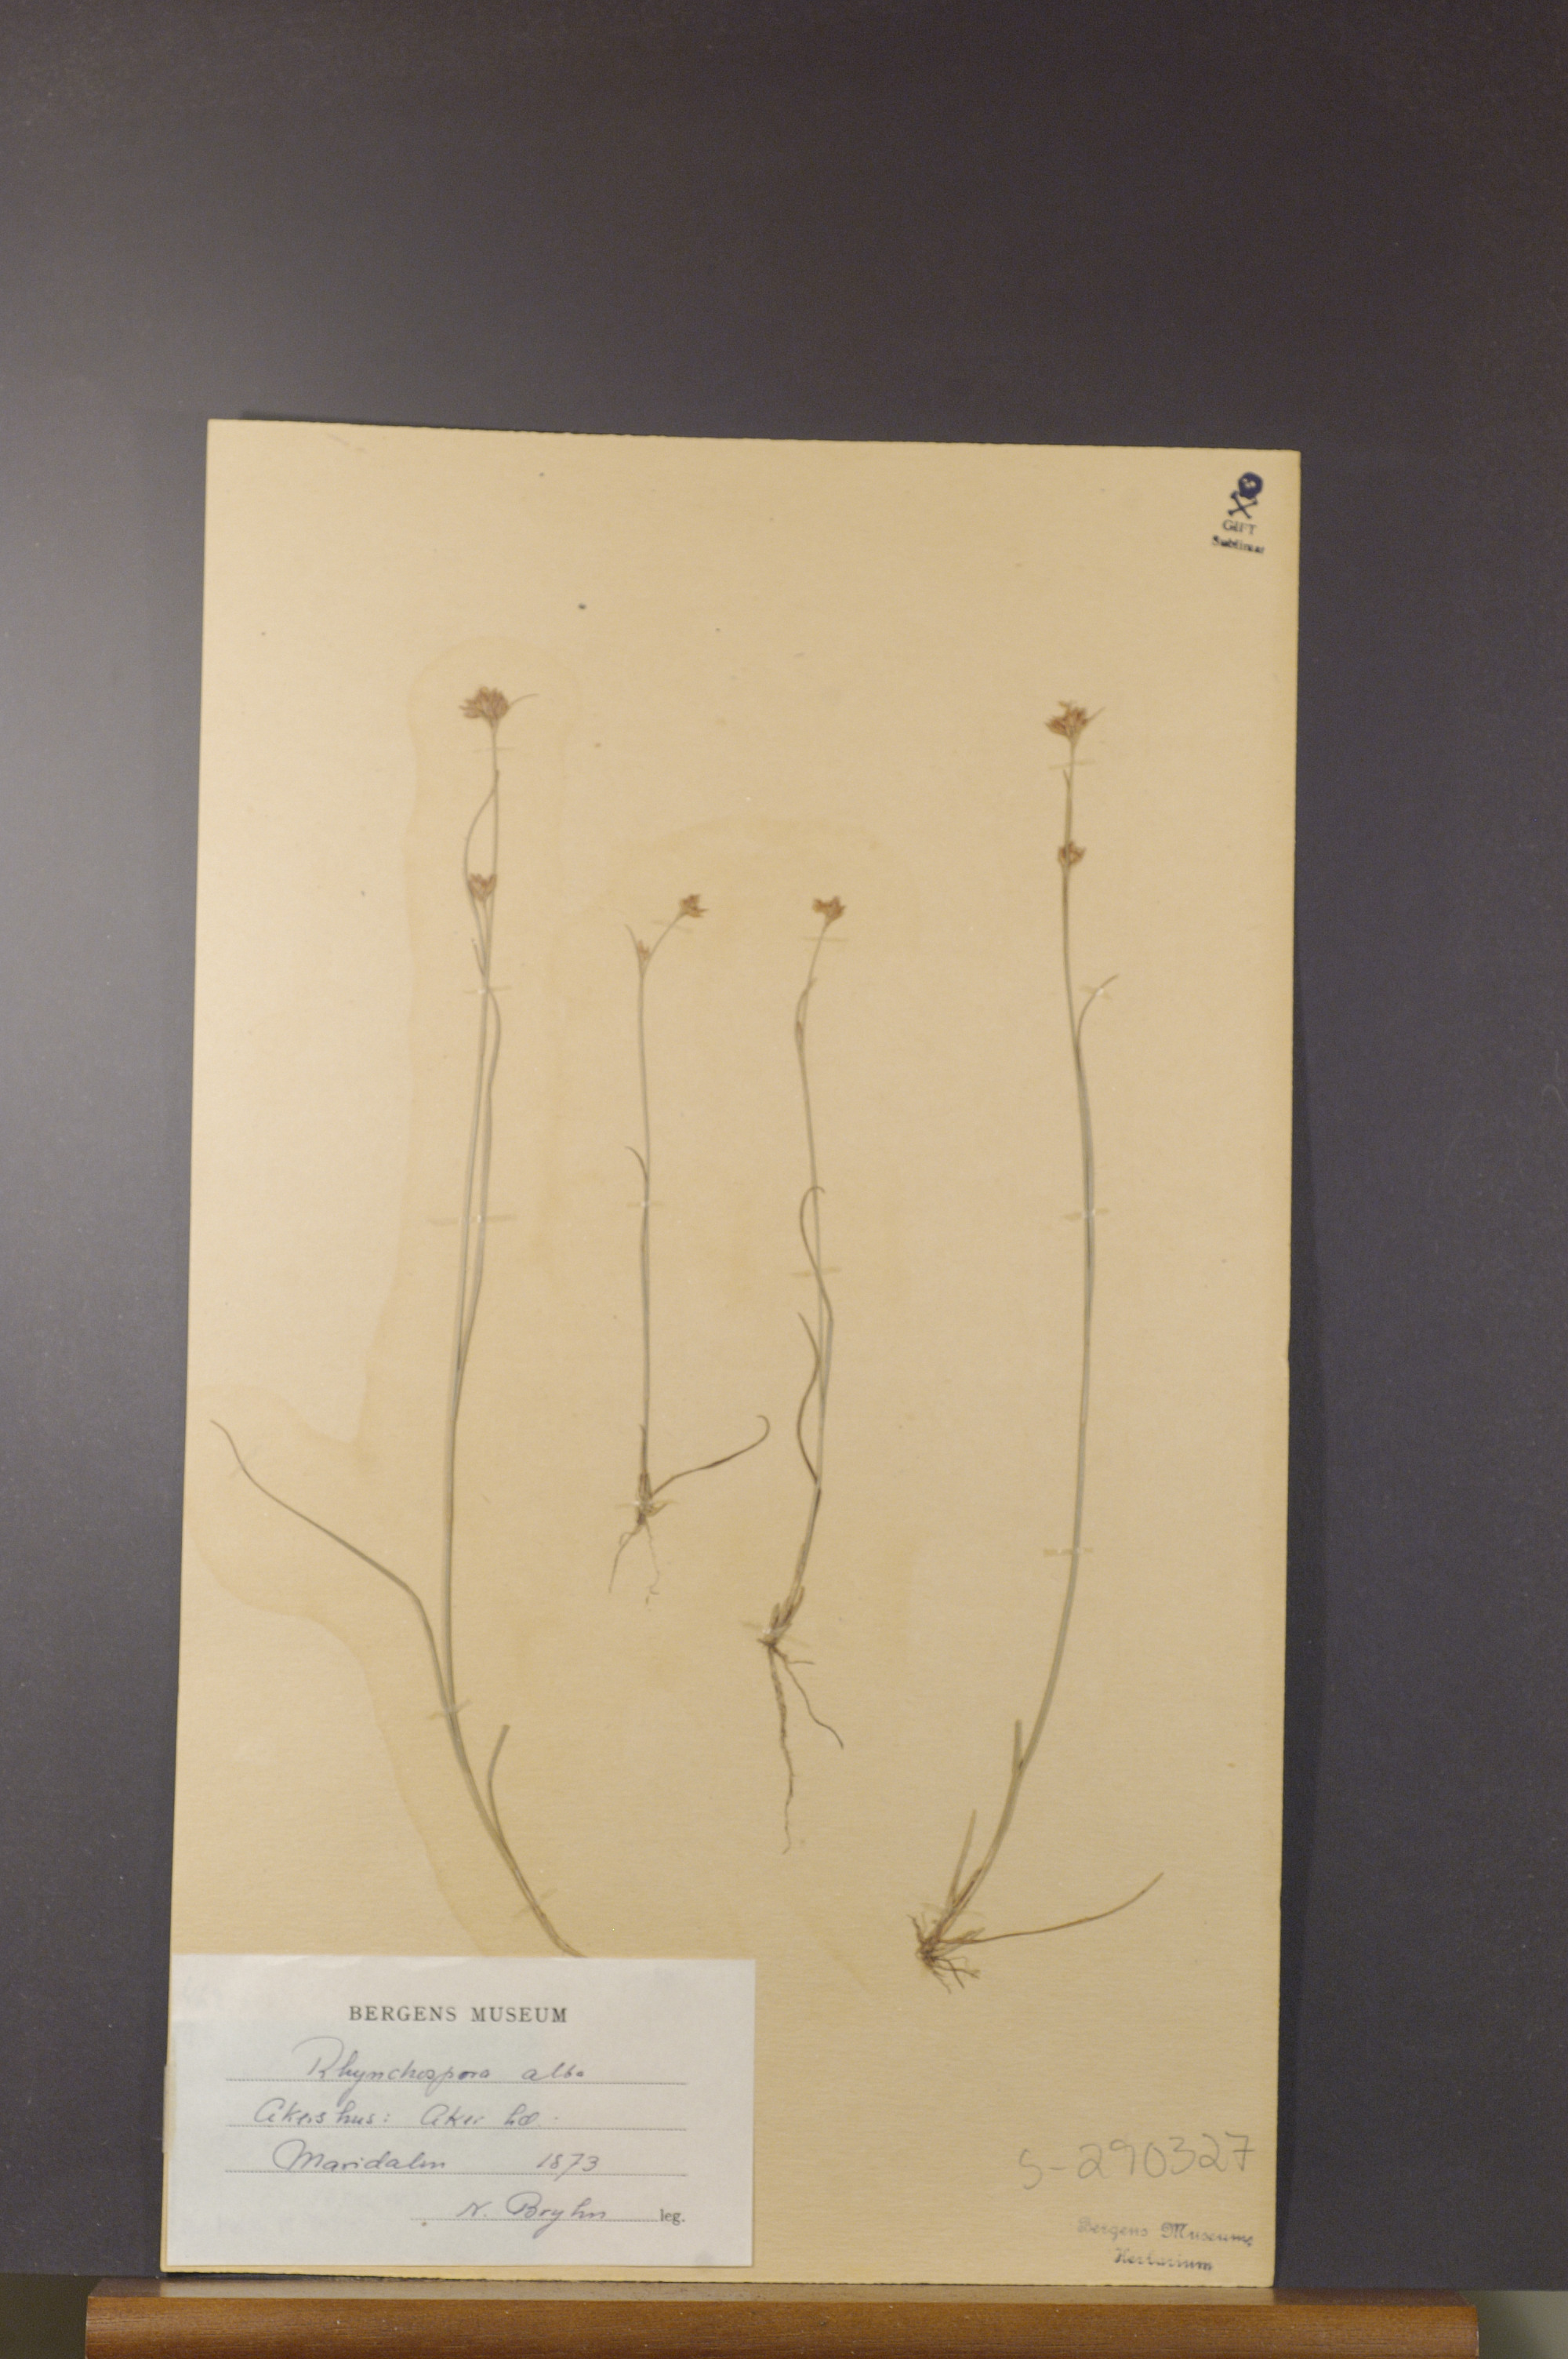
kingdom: Plantae
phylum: Tracheophyta
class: Liliopsida
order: Poales
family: Cyperaceae
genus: Rhynchospora
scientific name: Rhynchospora alba
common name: White beak-sedge
